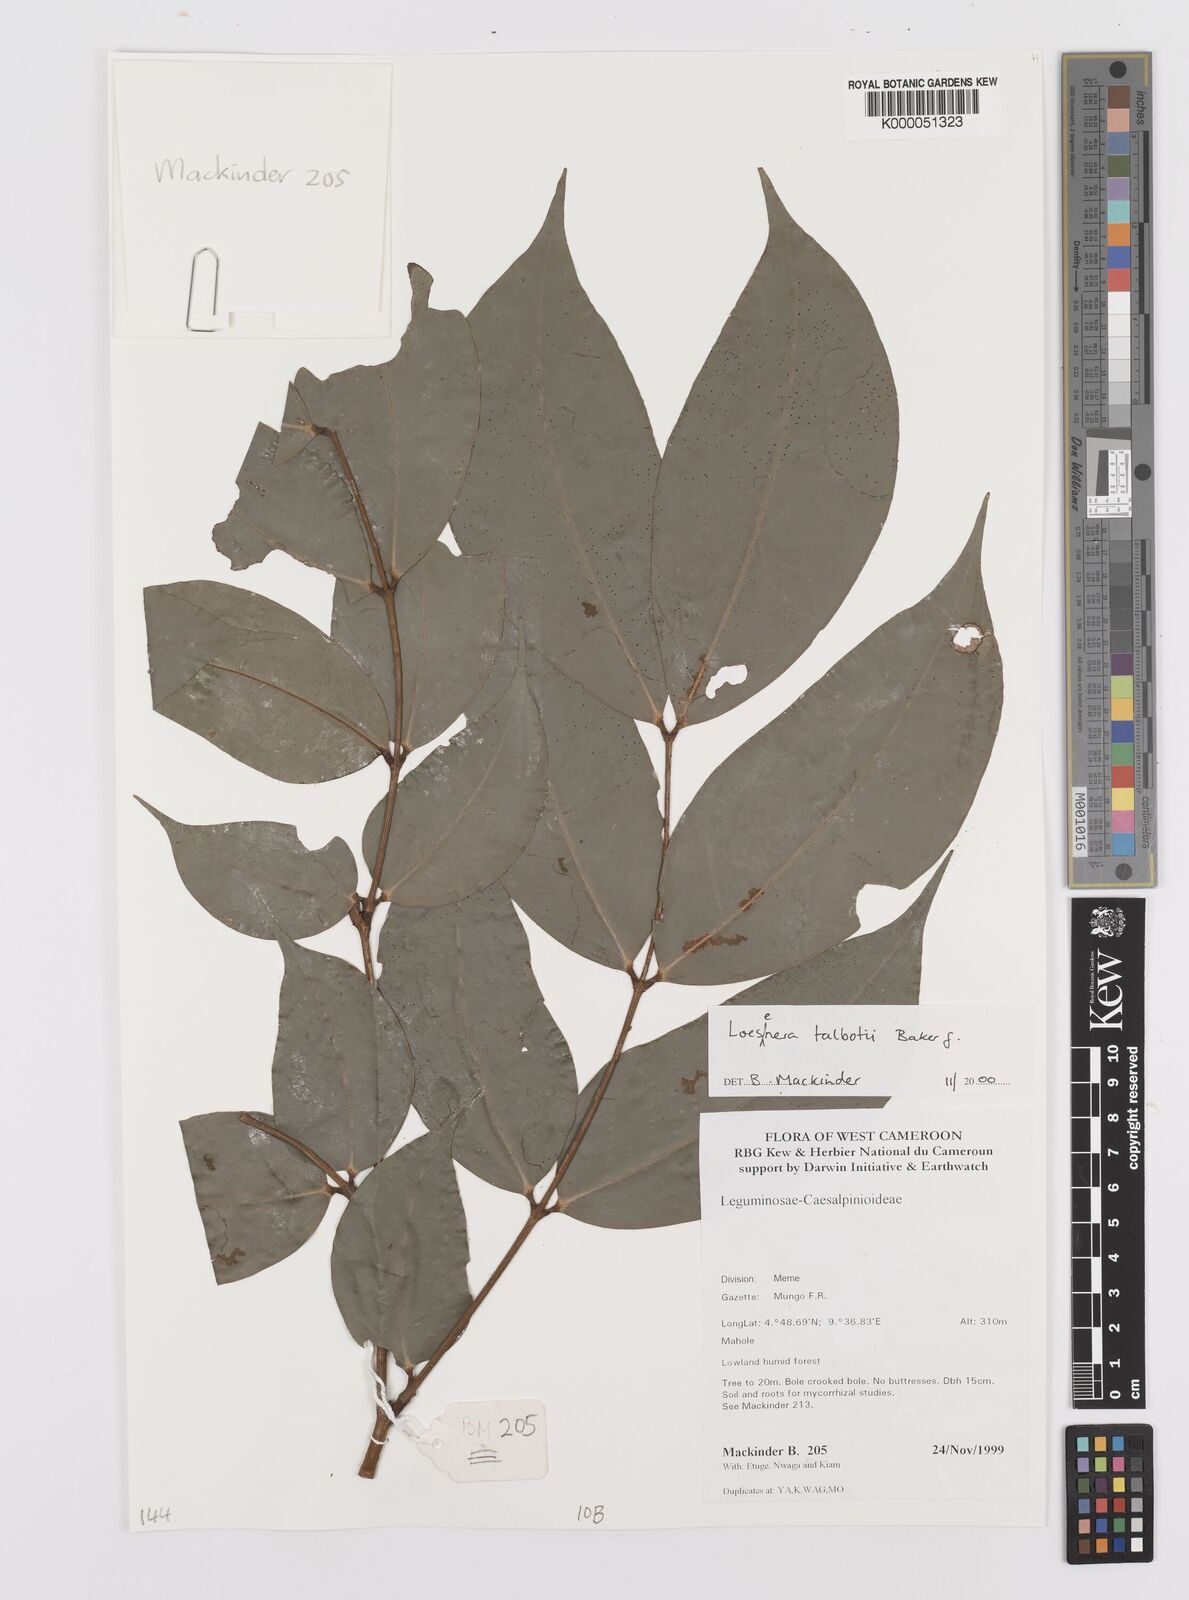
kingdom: Plantae
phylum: Tracheophyta
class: Magnoliopsida
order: Fabales
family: Fabaceae
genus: Loesenera
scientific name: Loesenera talbotii
